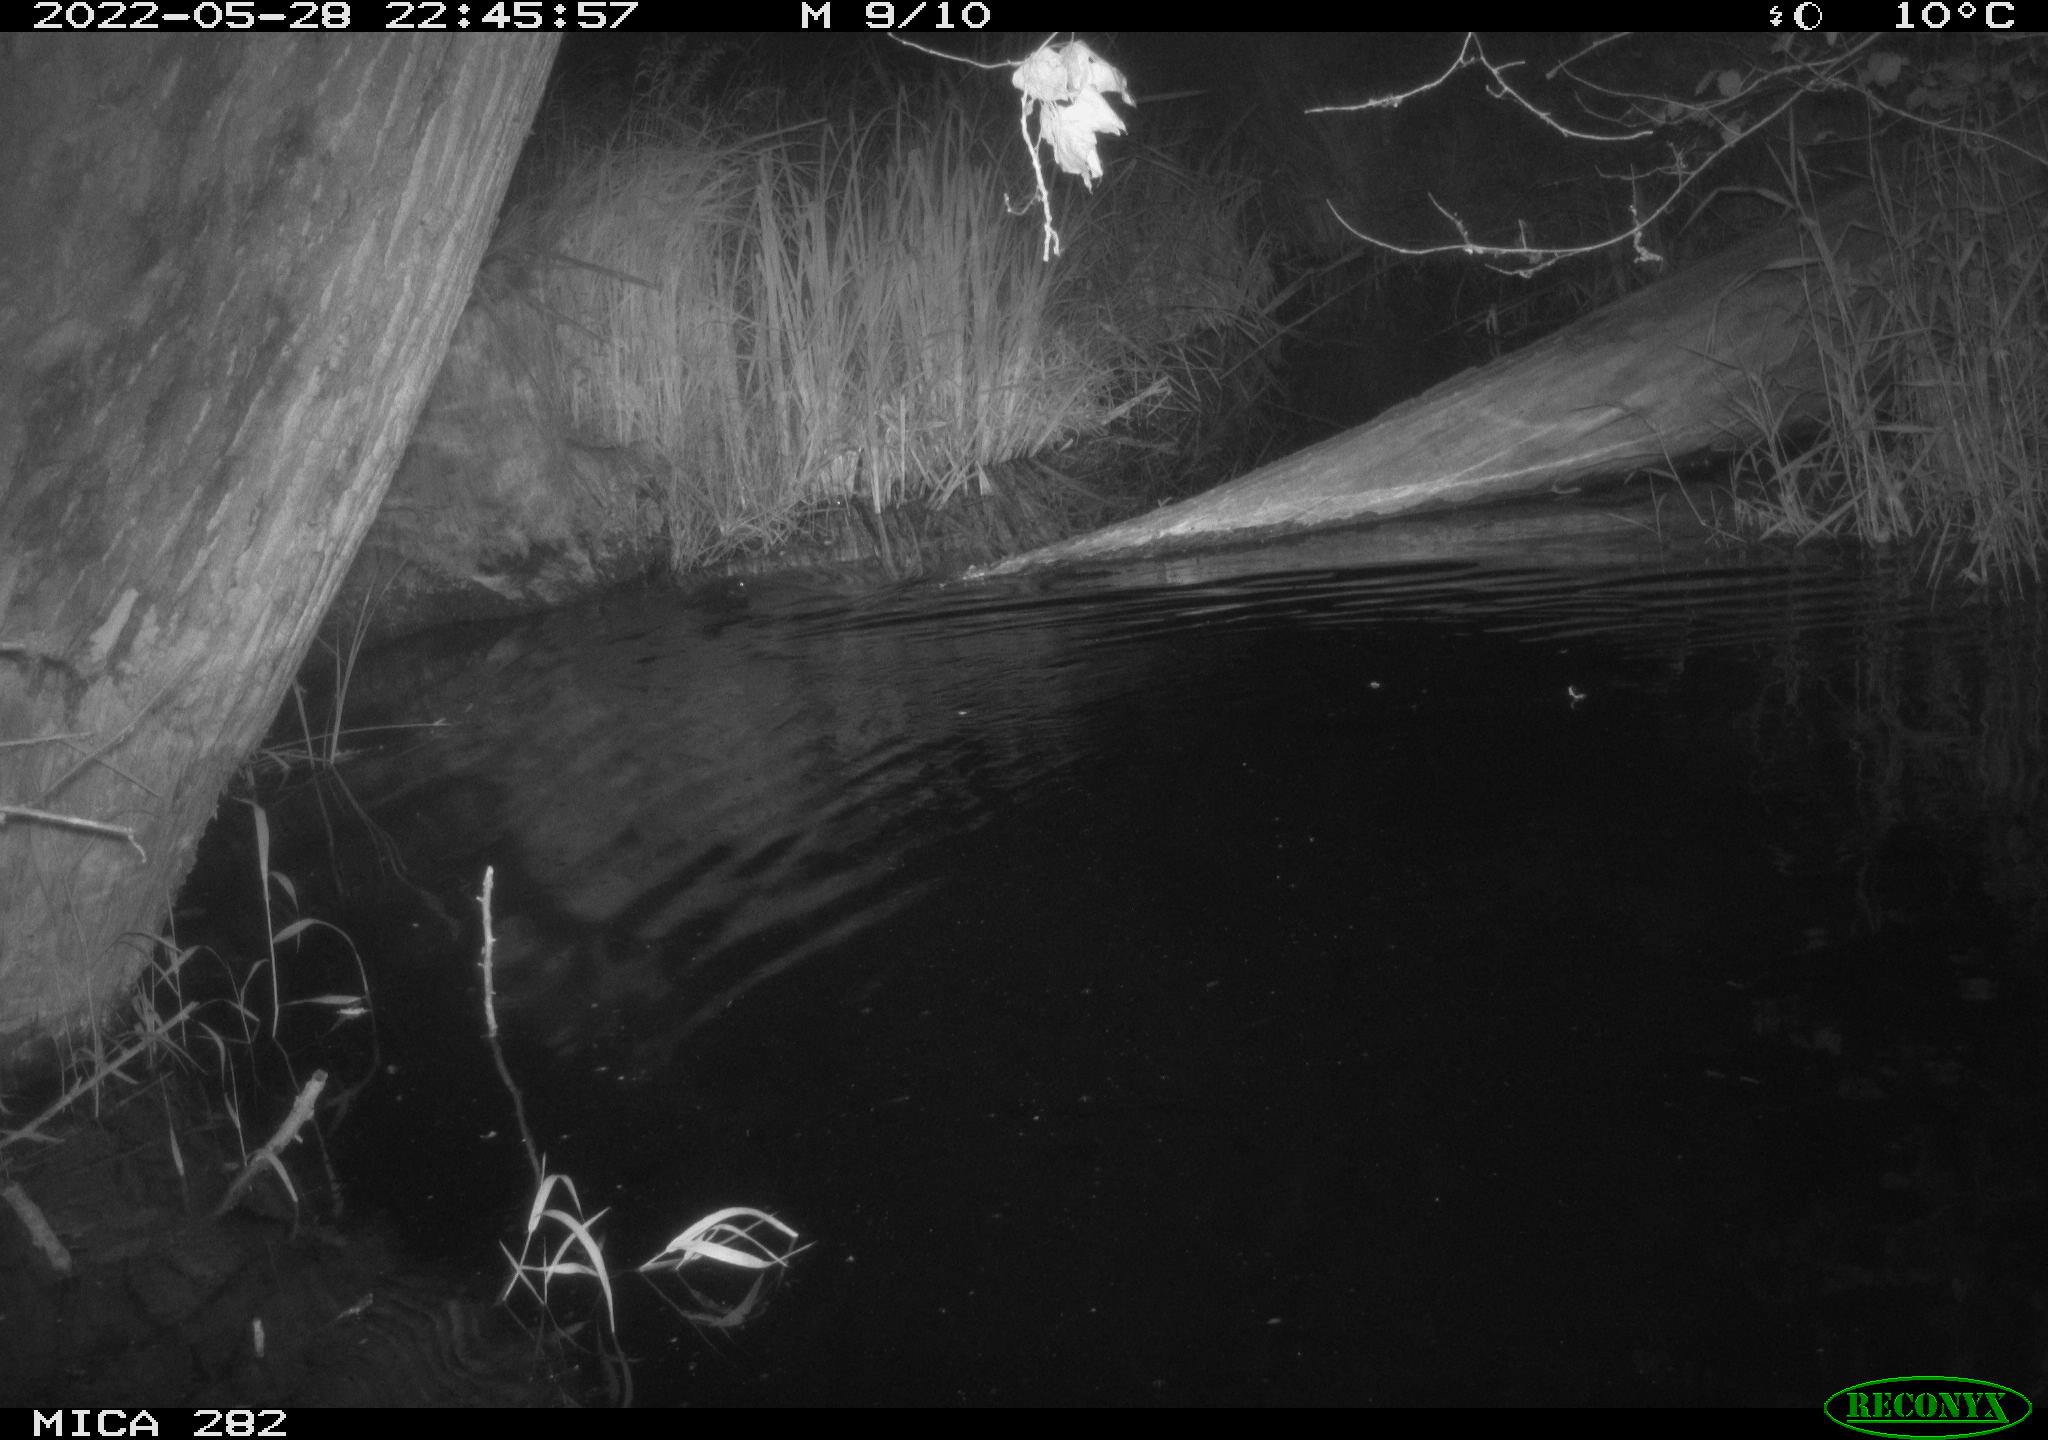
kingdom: Animalia
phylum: Chordata
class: Mammalia
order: Rodentia
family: Castoridae
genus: Castor
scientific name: Castor fiber
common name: Eurasian beaver
